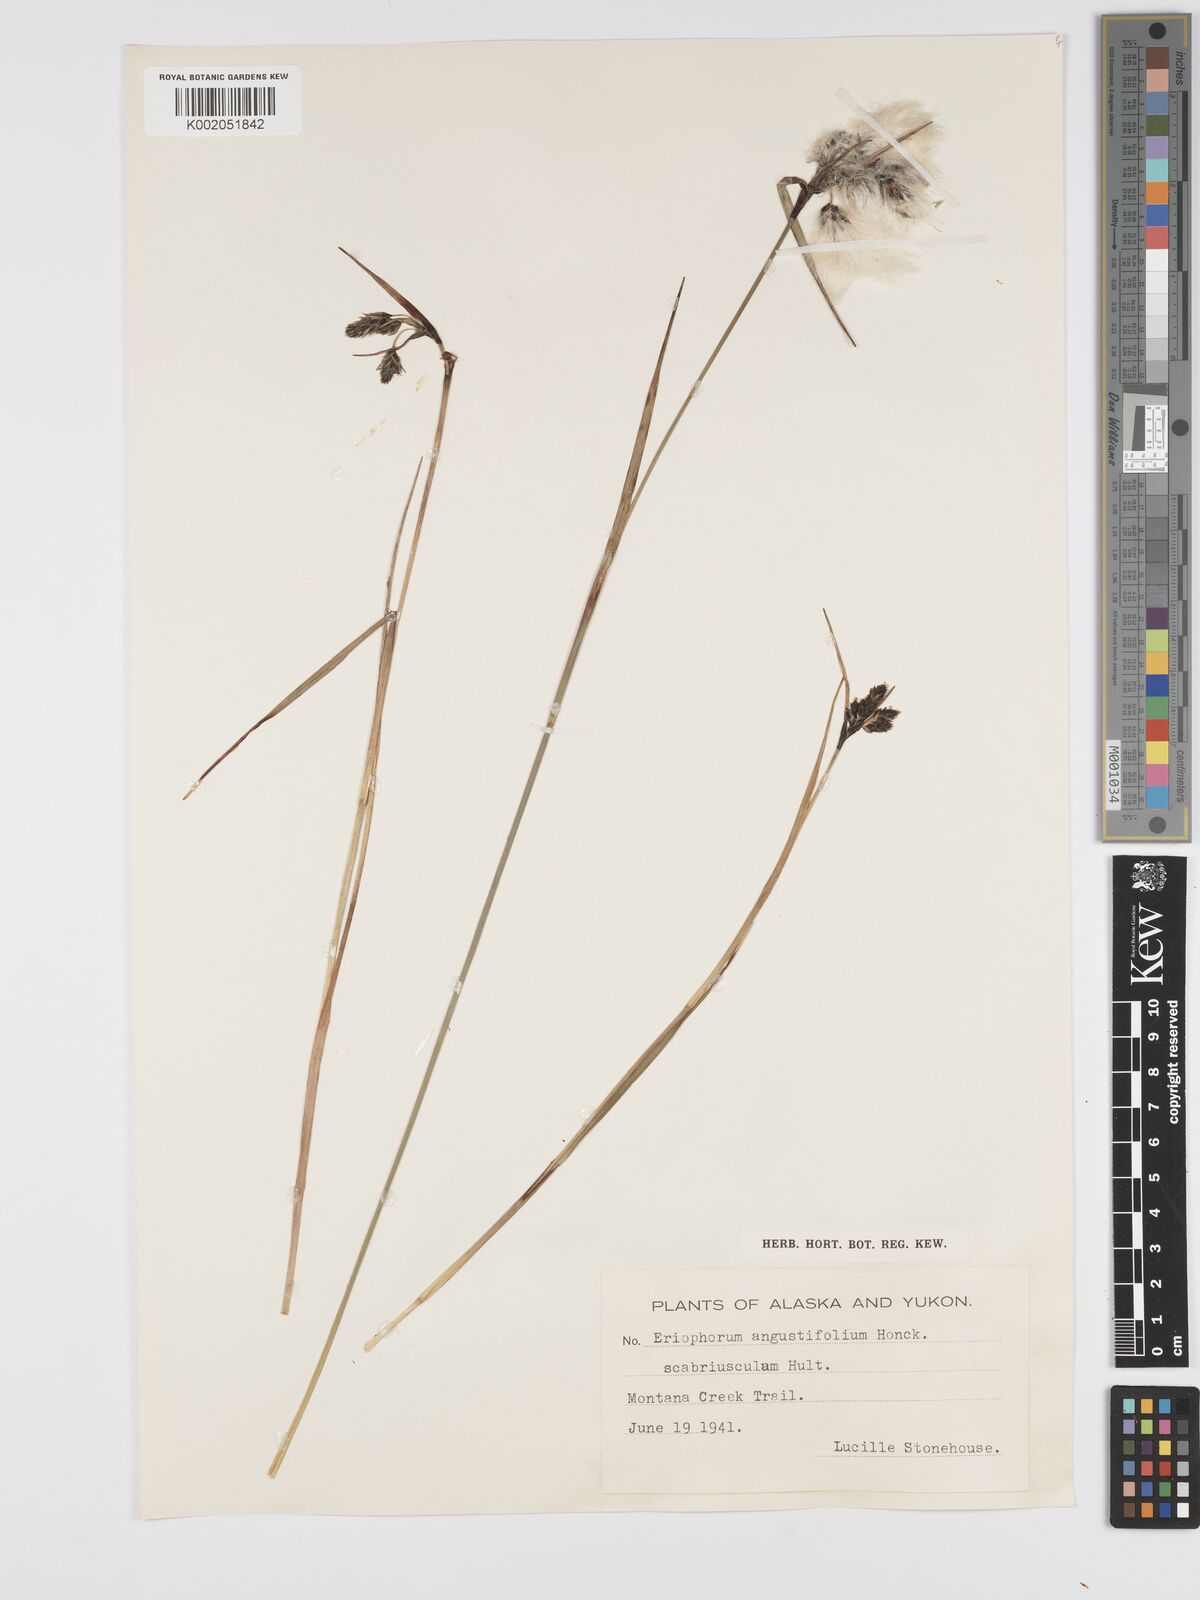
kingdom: Plantae
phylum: Tracheophyta
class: Liliopsida
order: Poales
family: Cyperaceae
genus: Eriophorum
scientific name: Eriophorum angustifolium
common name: Common cottongrass
